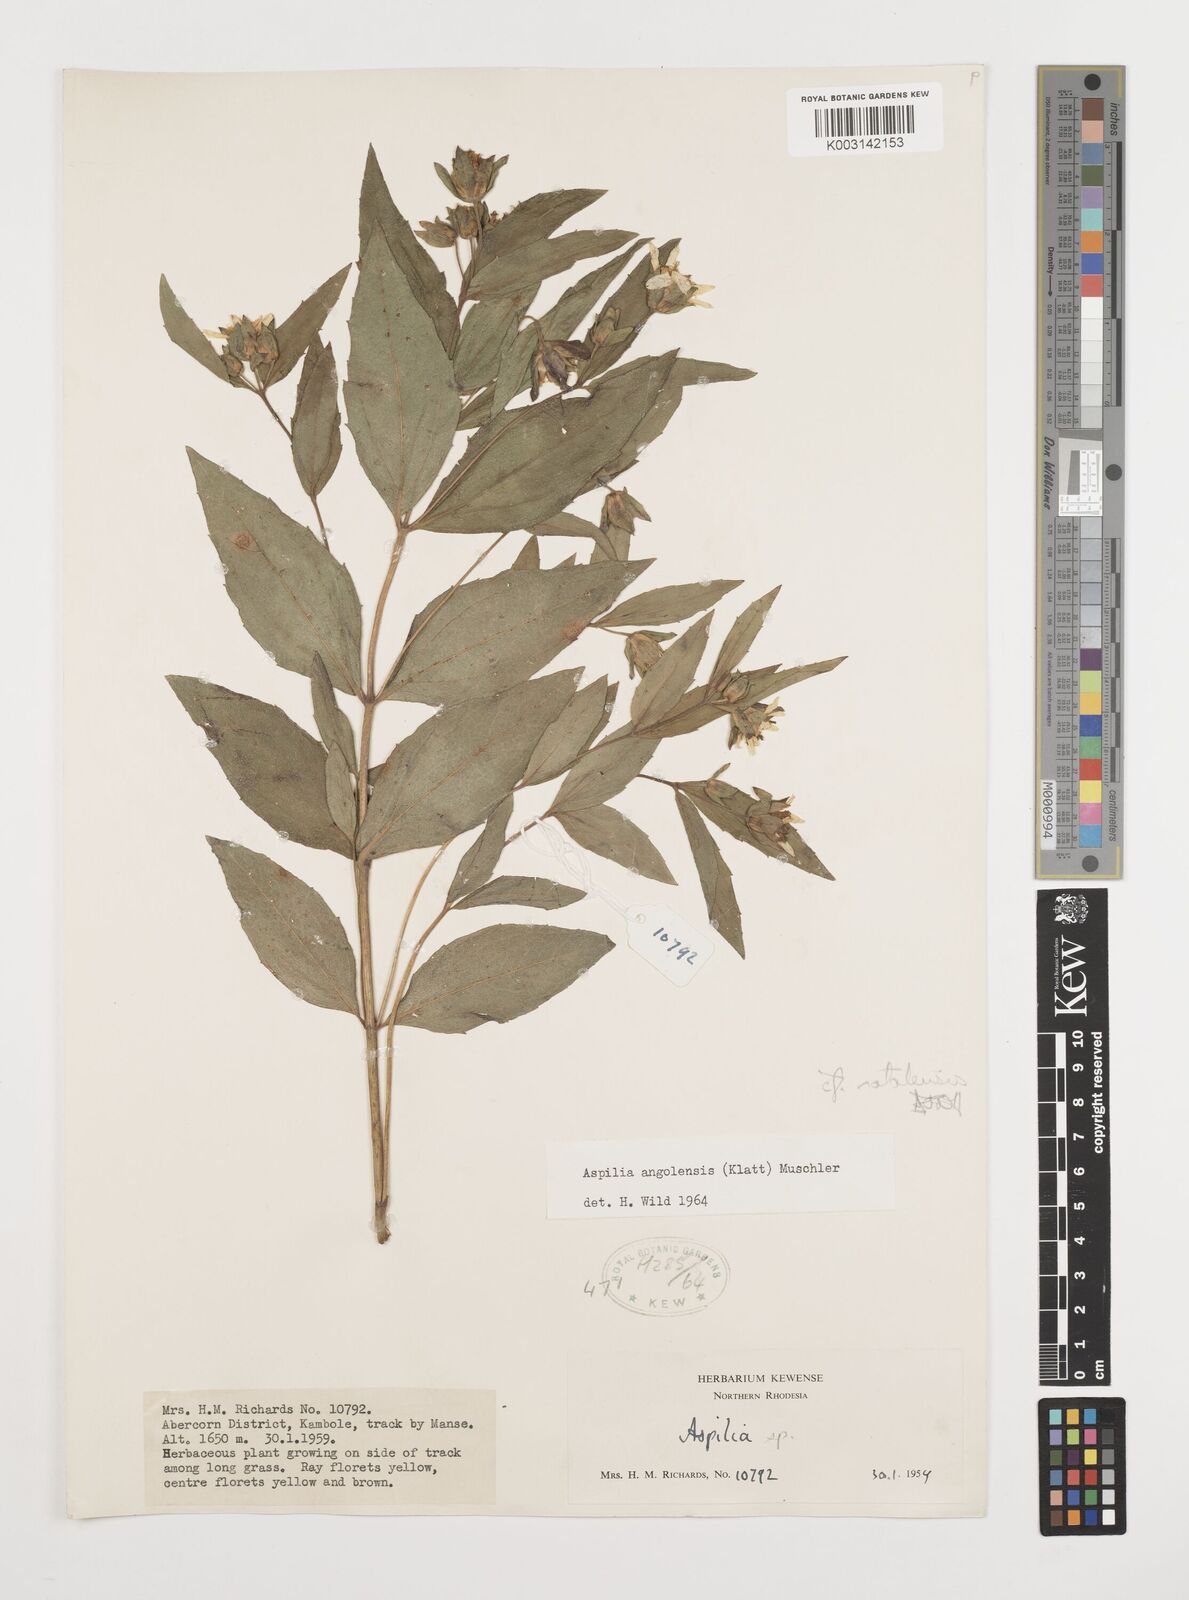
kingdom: Plantae
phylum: Tracheophyta
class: Magnoliopsida
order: Asterales
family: Asteraceae
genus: Aspilia
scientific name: Aspilia natalensis
